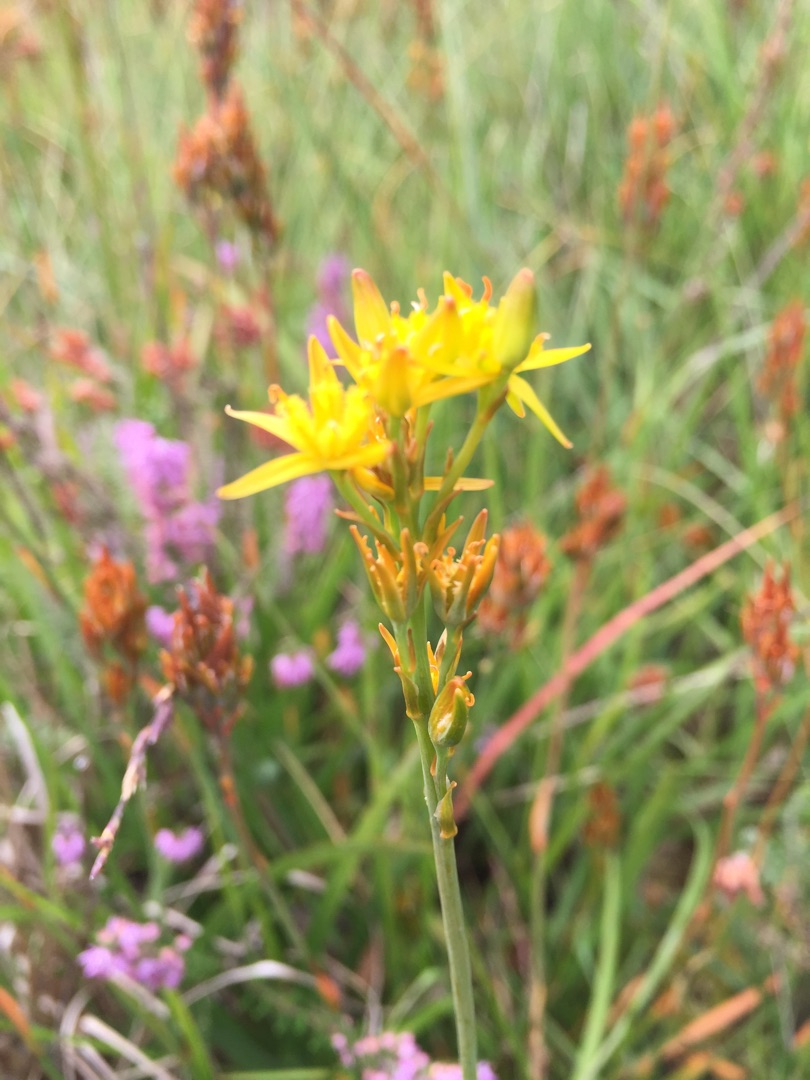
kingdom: Plantae
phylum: Tracheophyta
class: Liliopsida
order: Dioscoreales
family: Nartheciaceae
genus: Narthecium
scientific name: Narthecium ossifragum
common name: Benbræk
